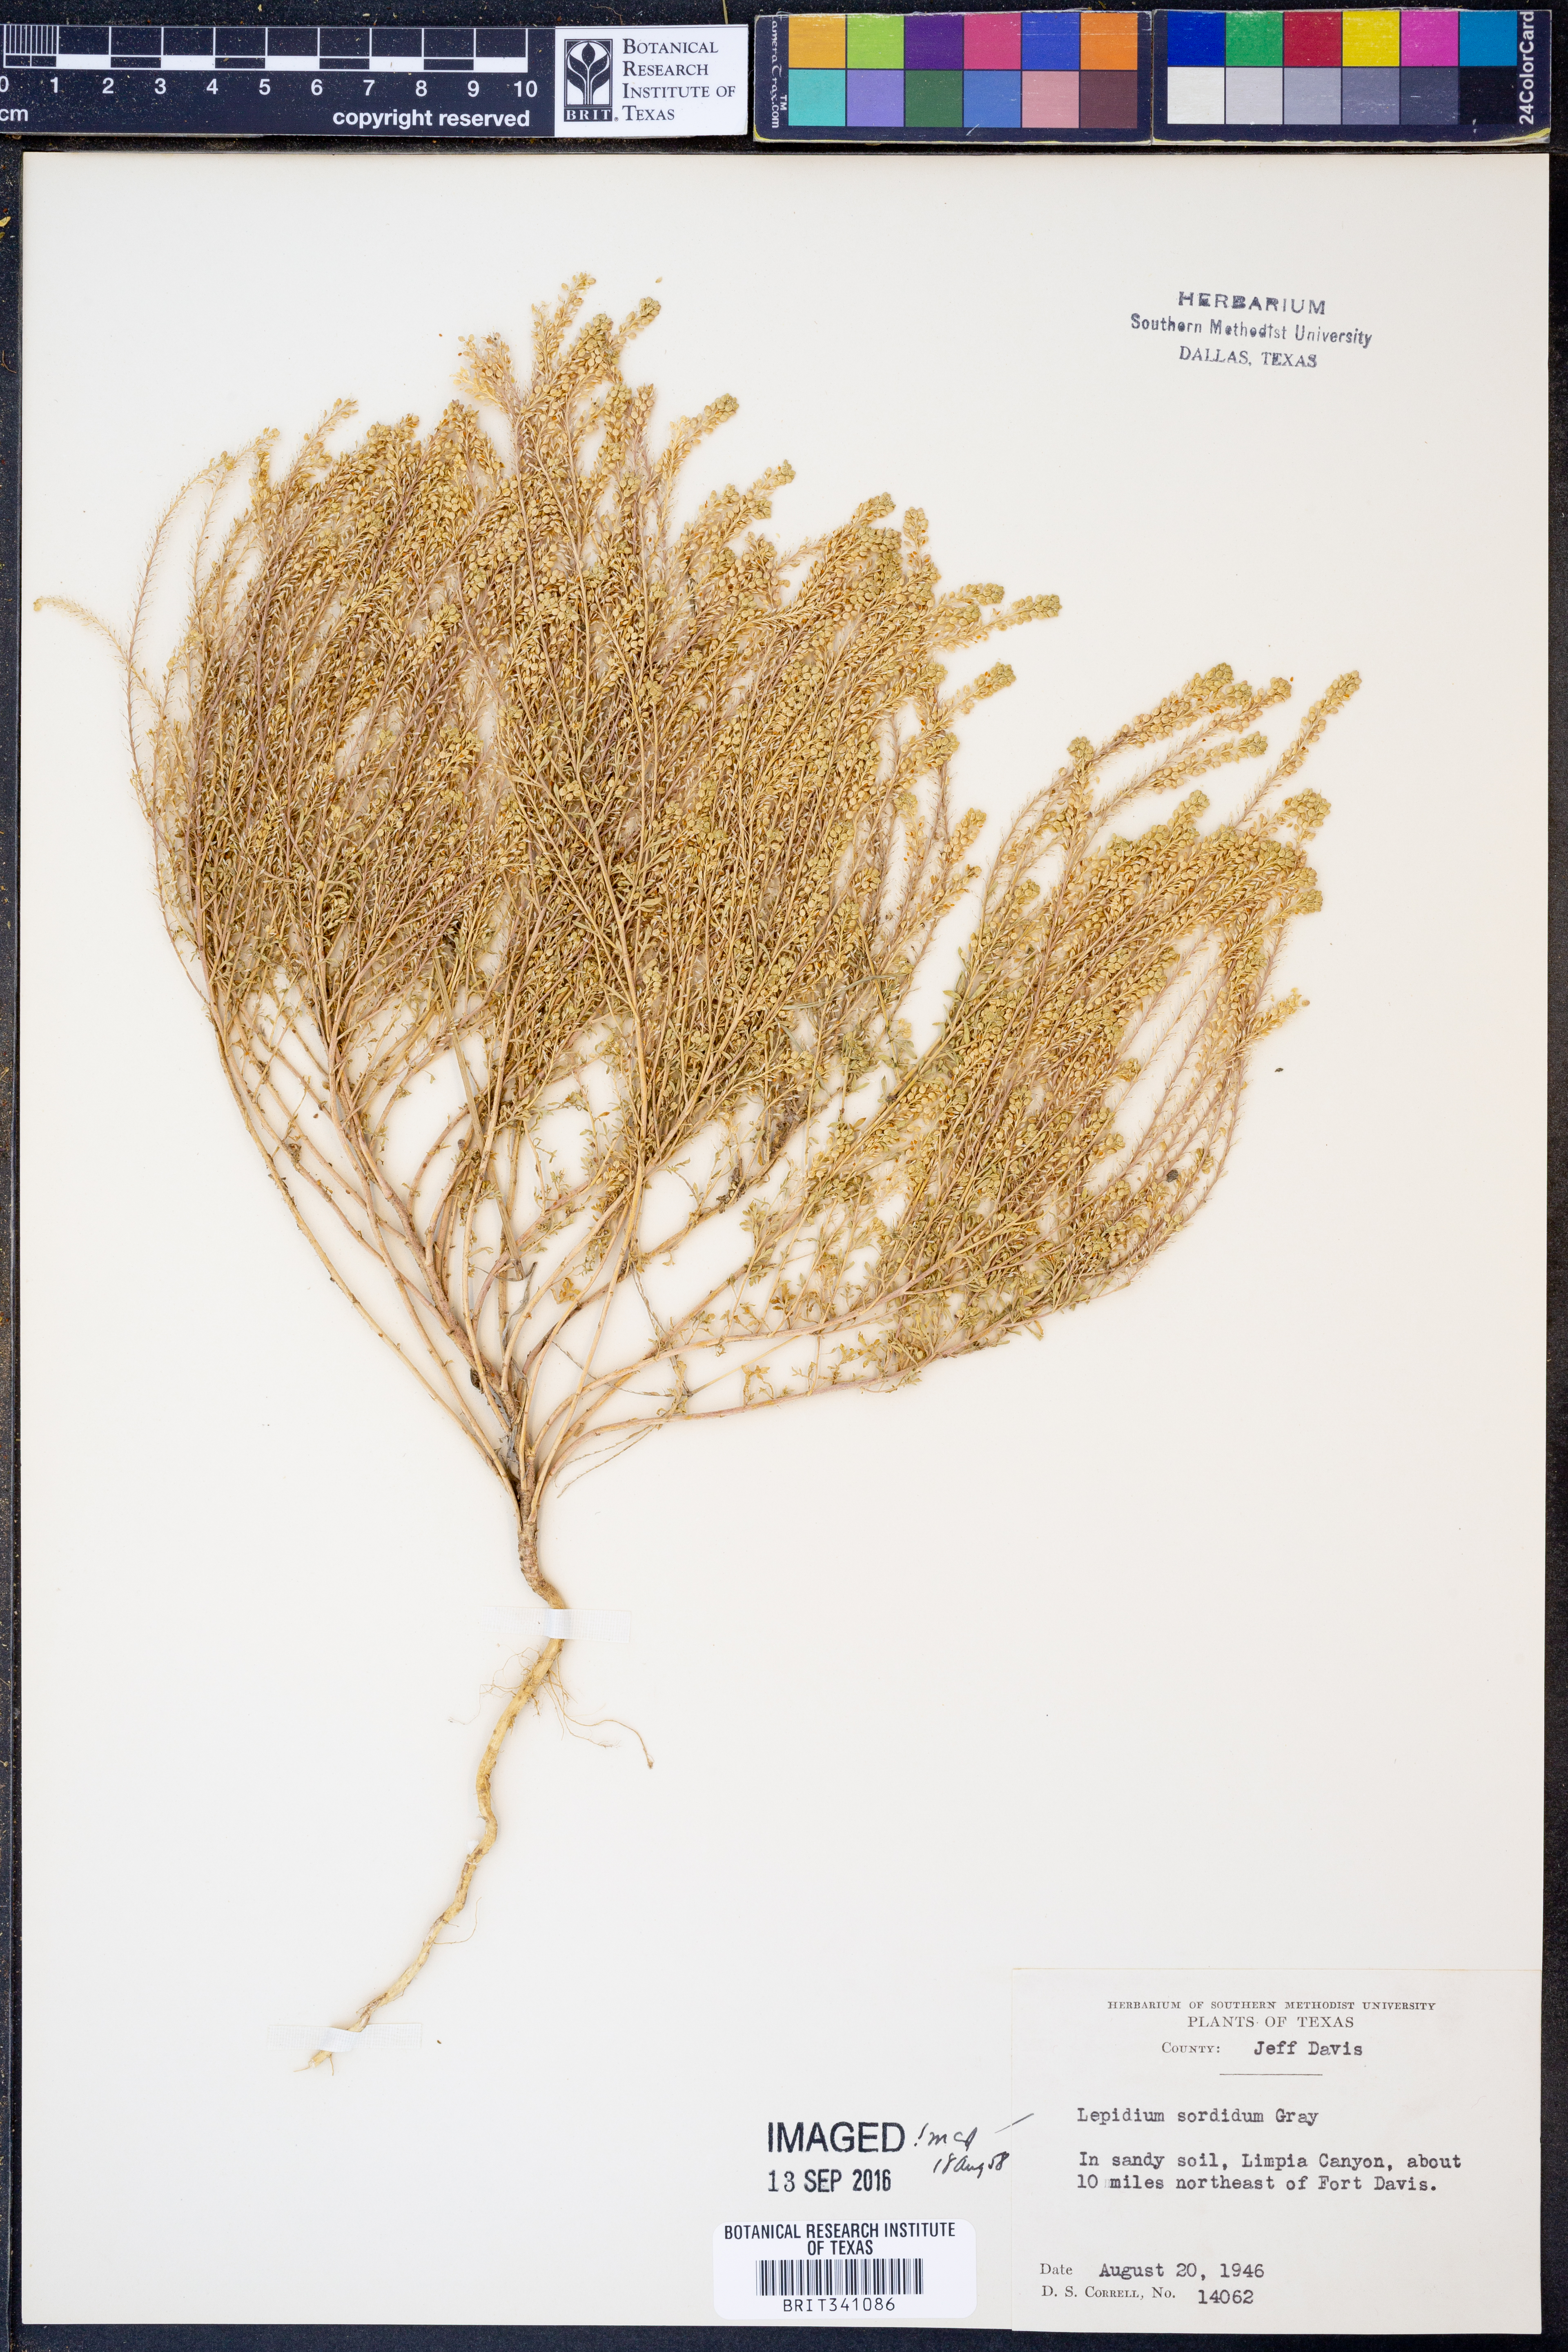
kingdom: Plantae
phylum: Tracheophyta
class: Magnoliopsida
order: Brassicales
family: Brassicaceae
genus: Lepidium
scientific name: Lepidium sordidum
